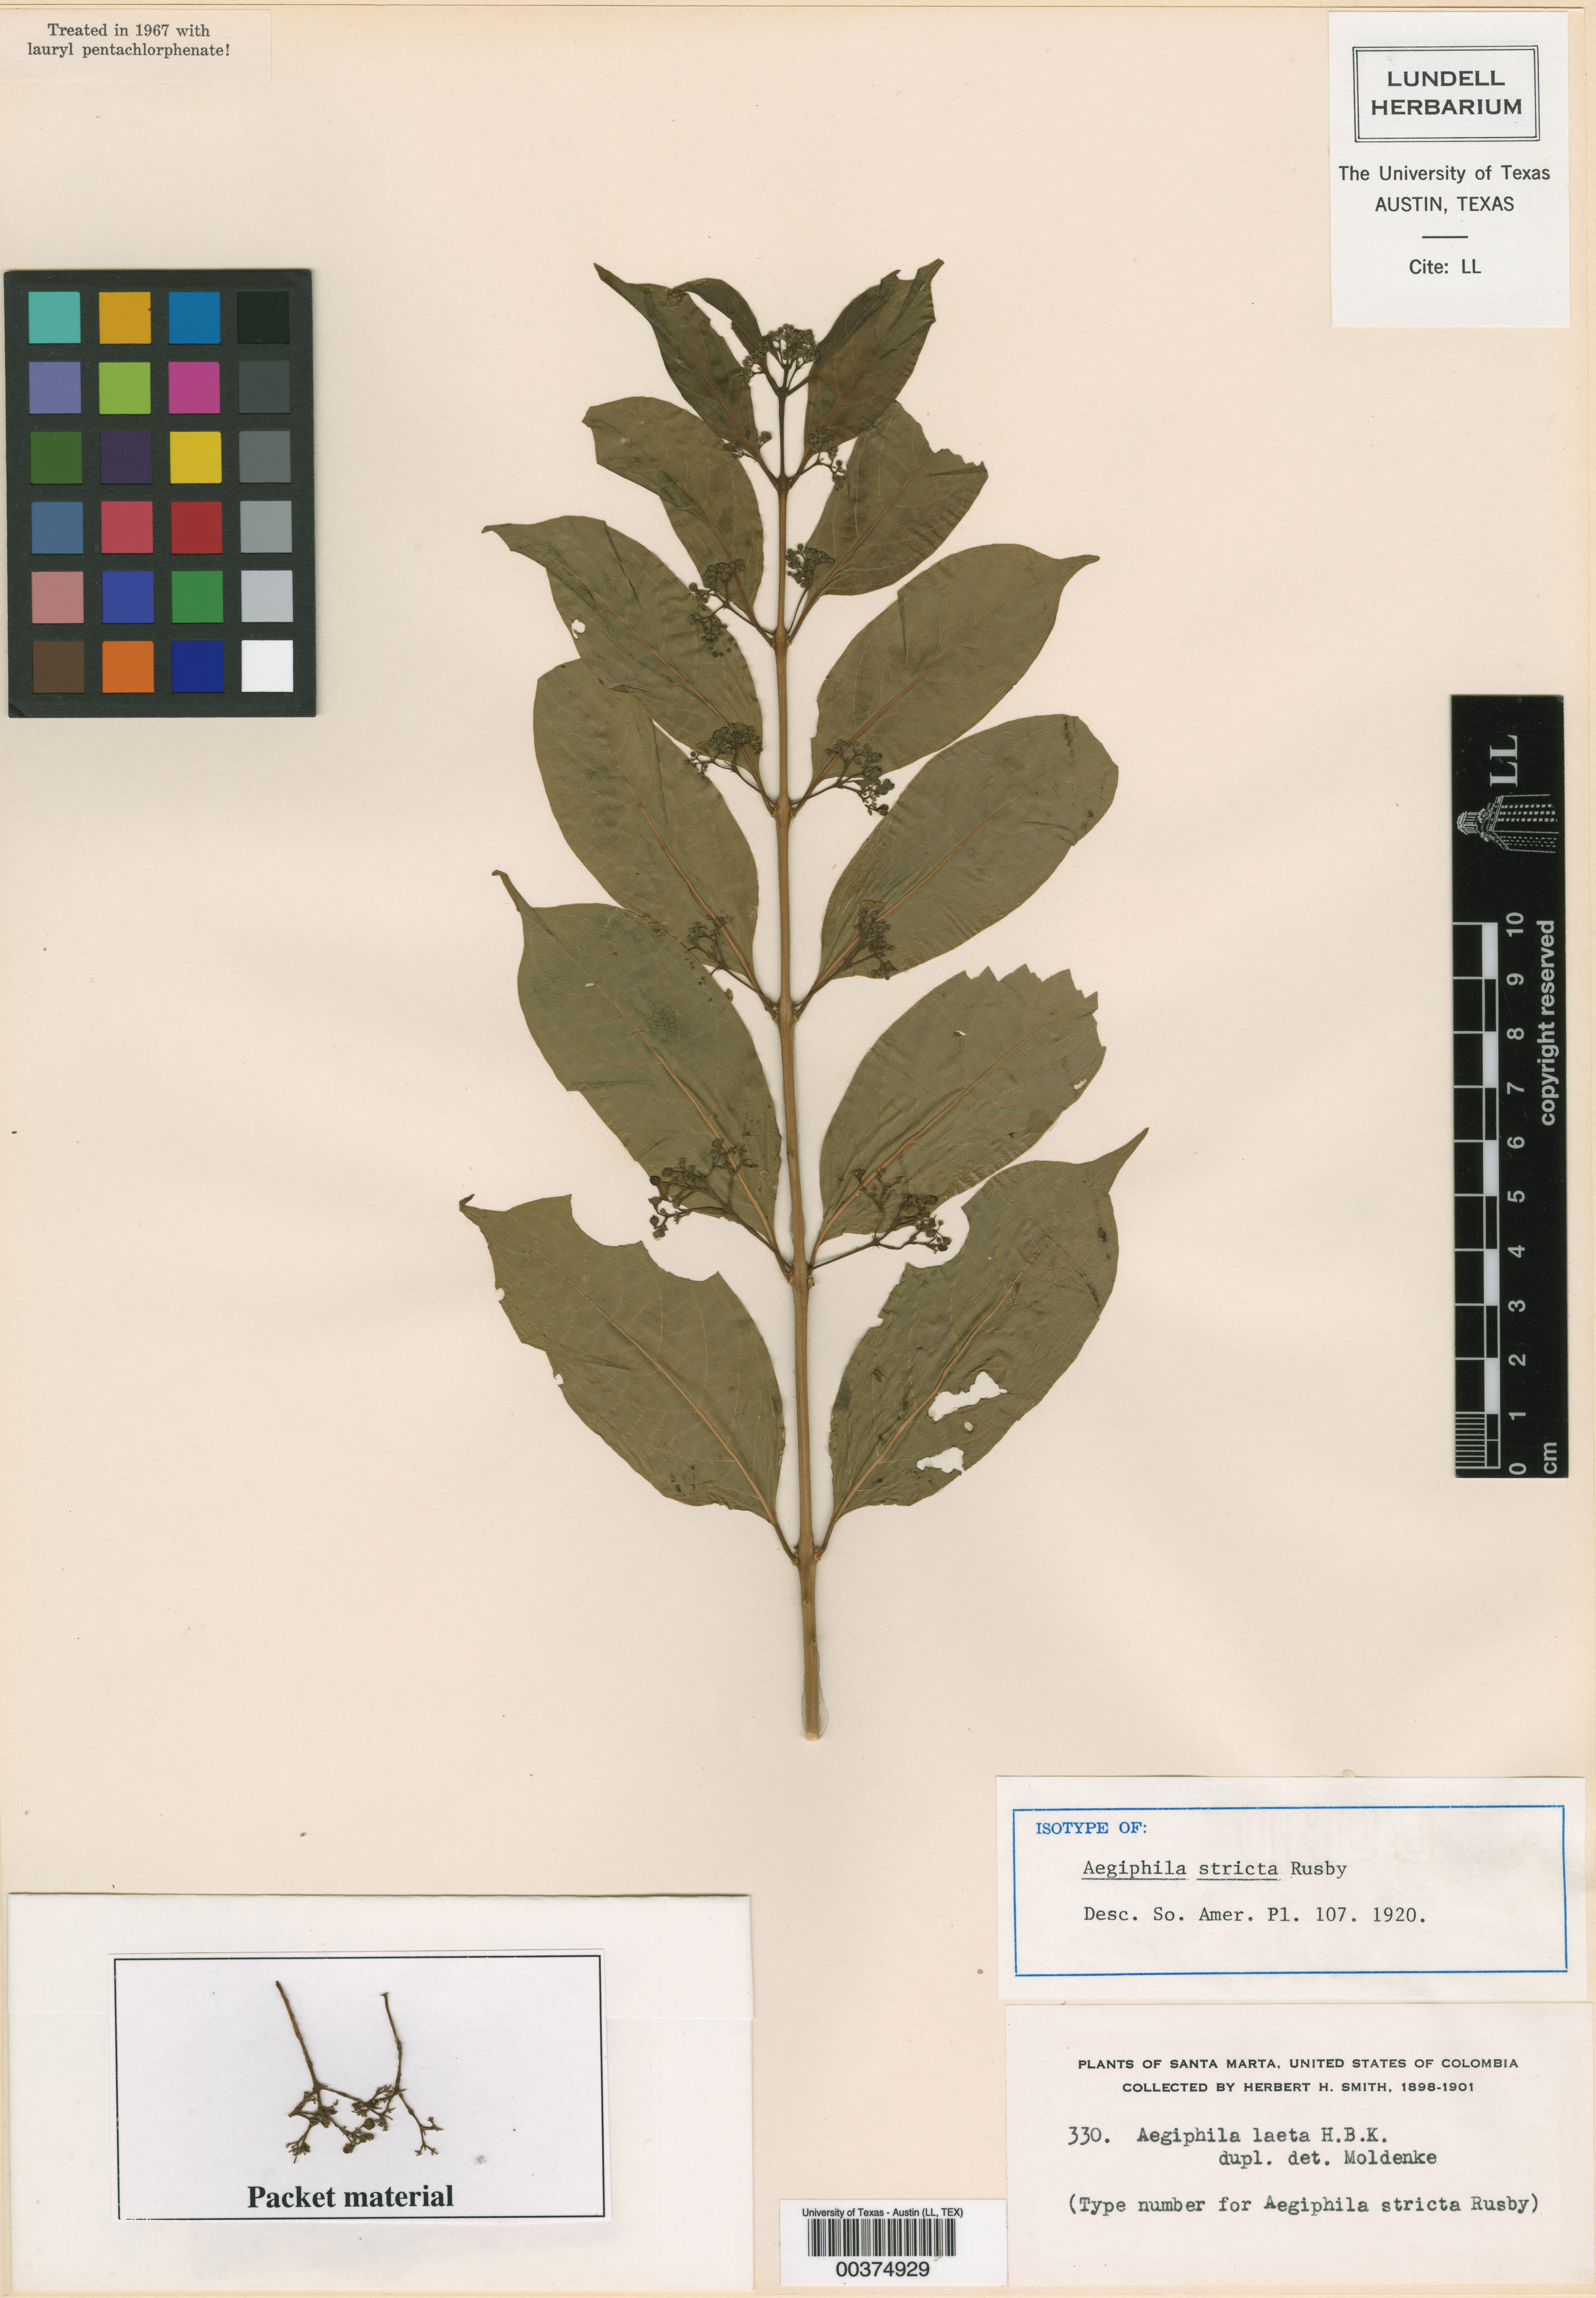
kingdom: Plantae
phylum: Tracheophyta
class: Magnoliopsida
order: Lamiales
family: Lamiaceae
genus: Aegiphila
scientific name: Aegiphila laeta
